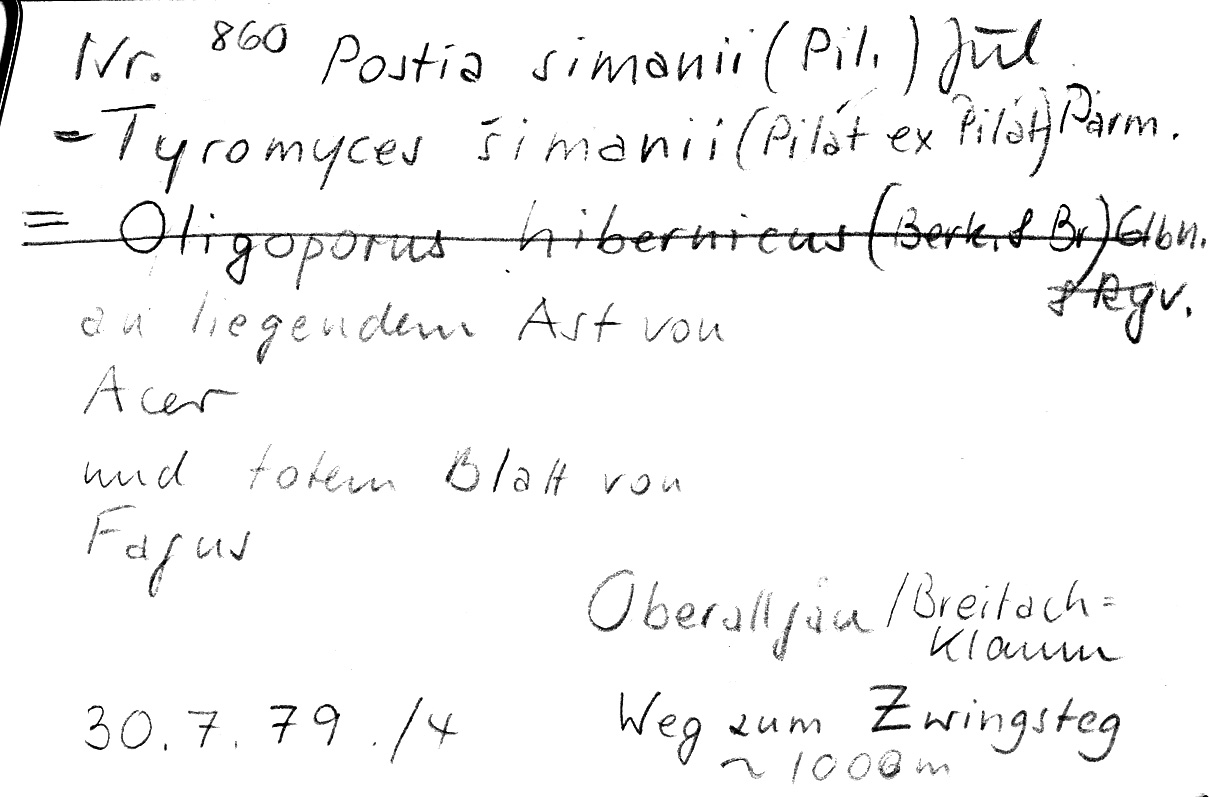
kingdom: Fungi
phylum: Basidiomycota
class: Agaricomycetes
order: Polyporales
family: Dacryobolaceae
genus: Postia
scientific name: Postia simanii
